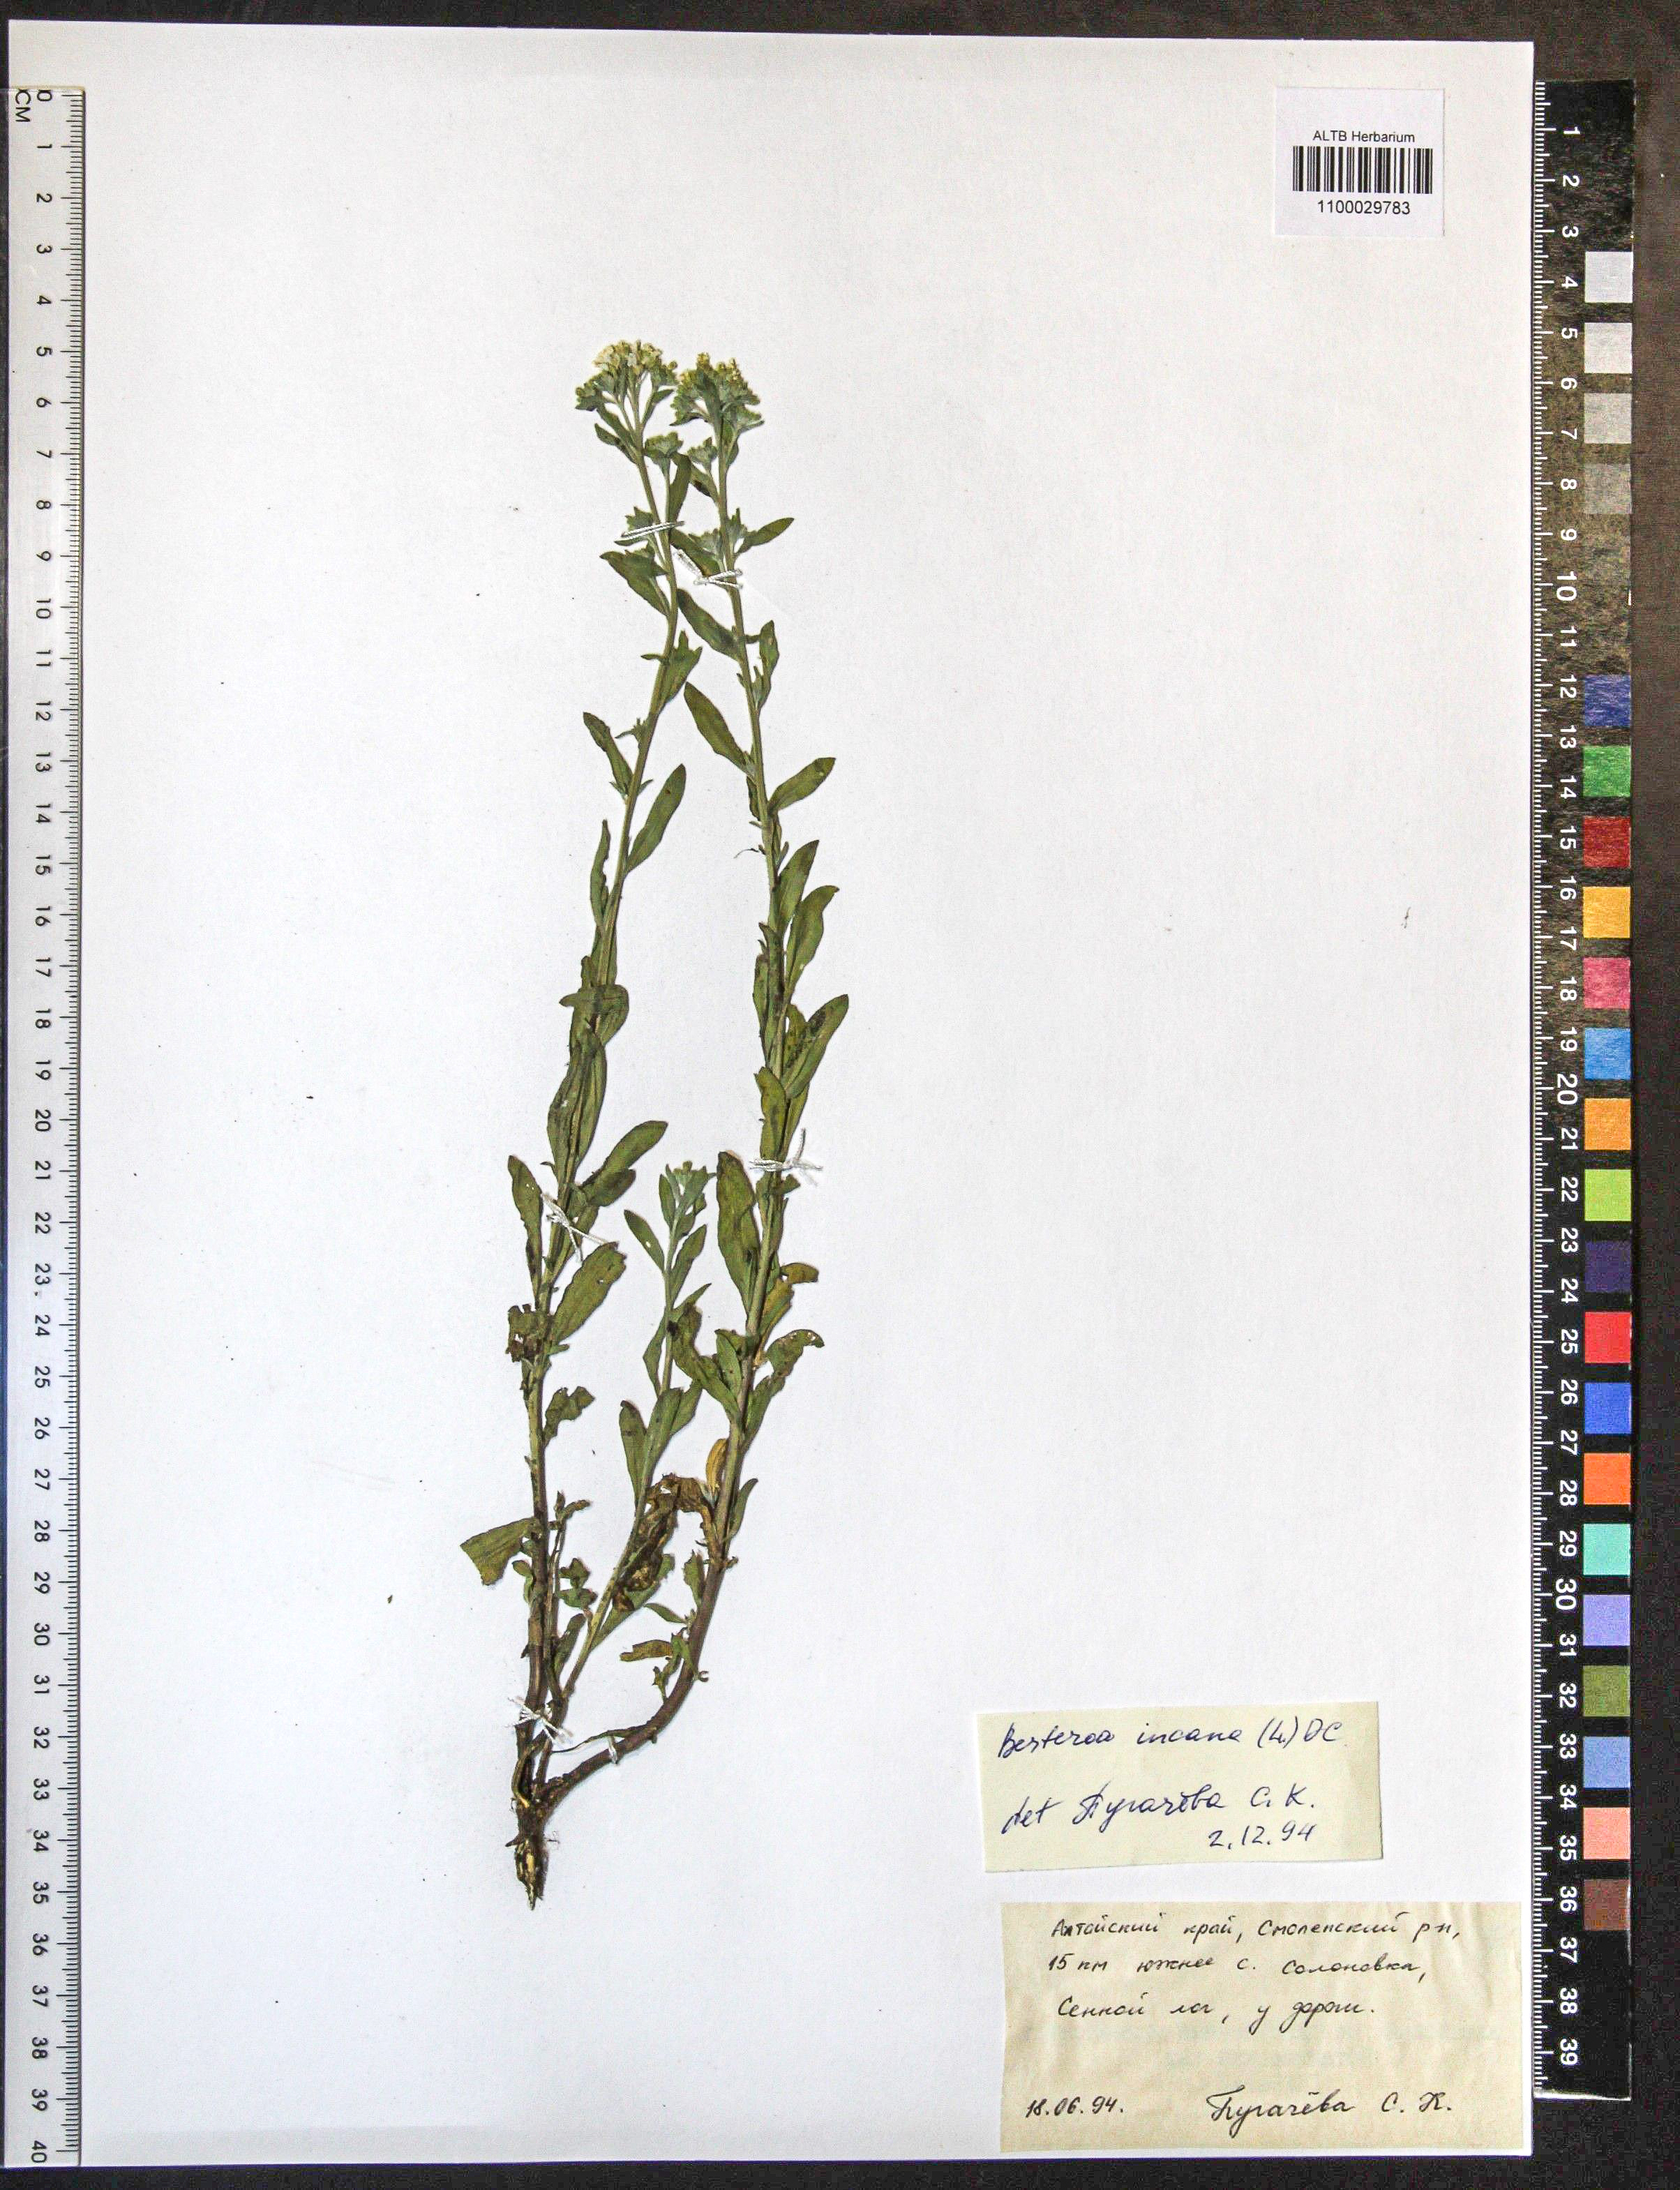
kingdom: Plantae
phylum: Tracheophyta
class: Magnoliopsida
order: Brassicales
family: Brassicaceae
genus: Berteroa
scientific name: Berteroa incana
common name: Hoary alison
